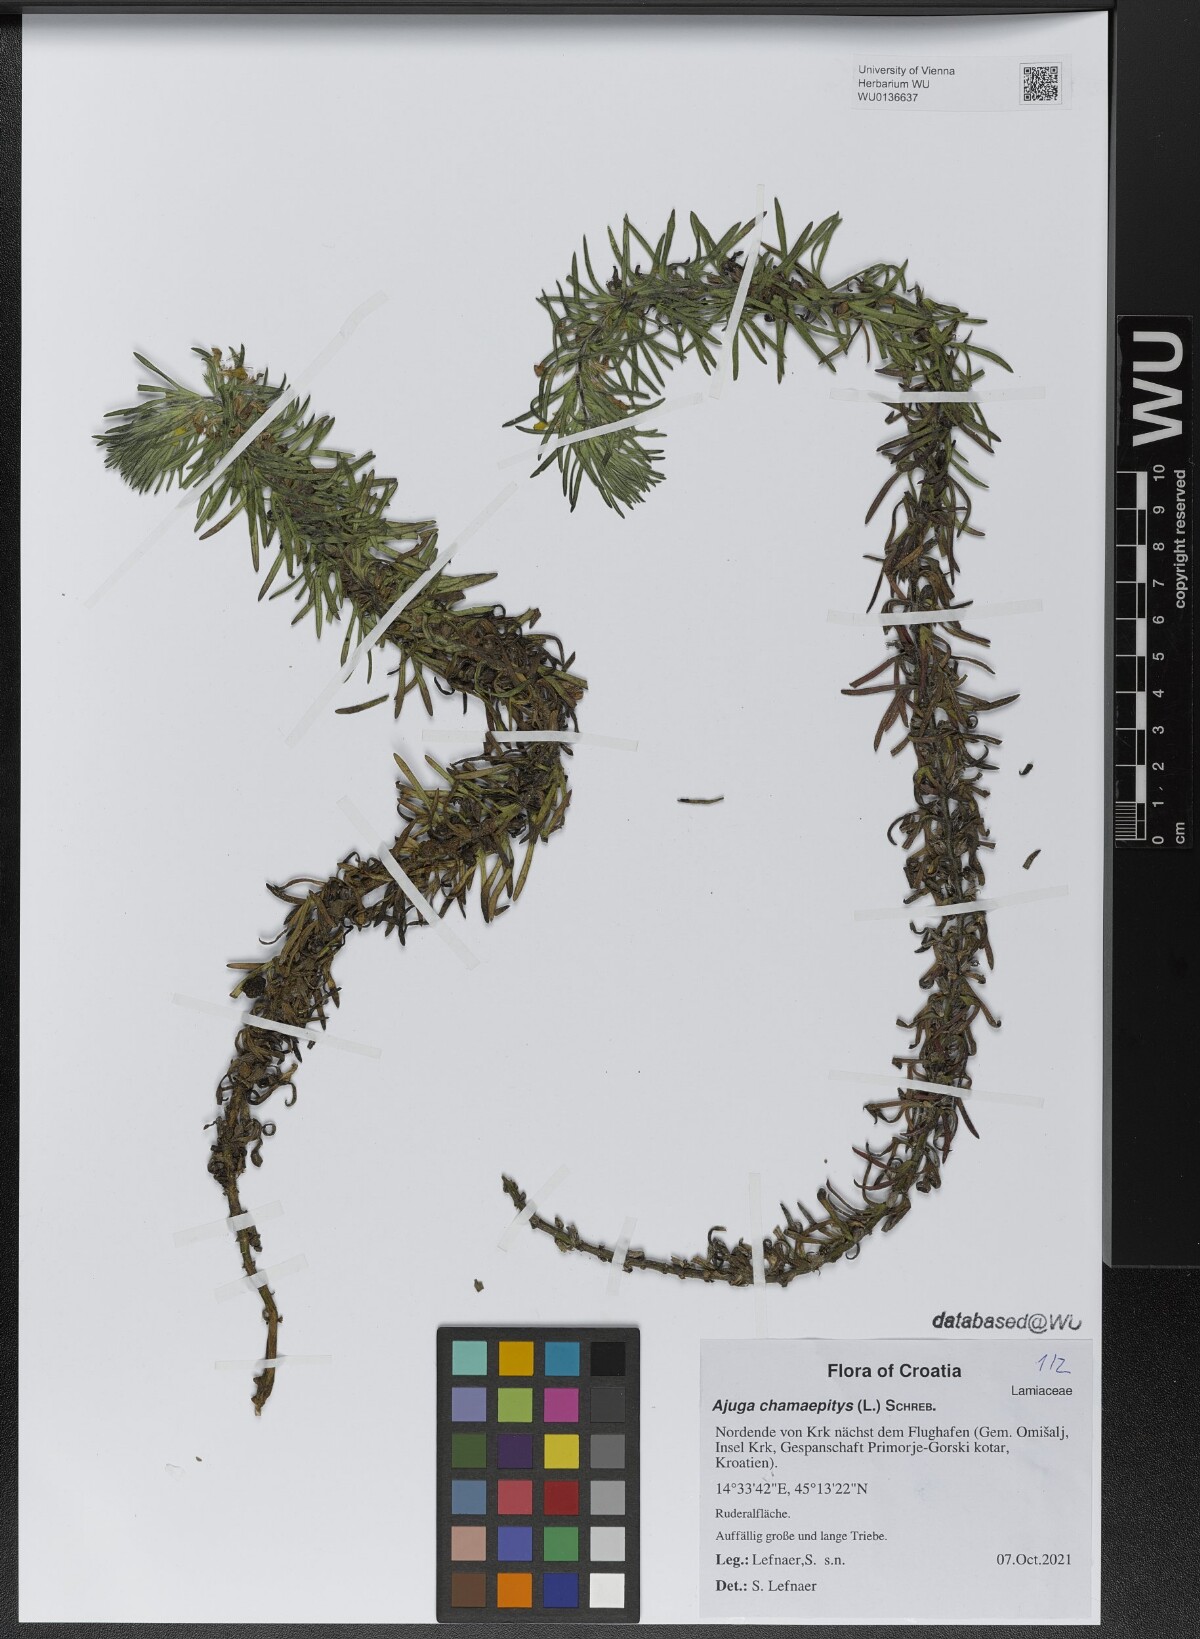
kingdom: Plantae
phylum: Tracheophyta
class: Magnoliopsida
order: Lamiales
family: Lamiaceae
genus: Ajuga
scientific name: Ajuga chamaepitys
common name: Ground-pine
